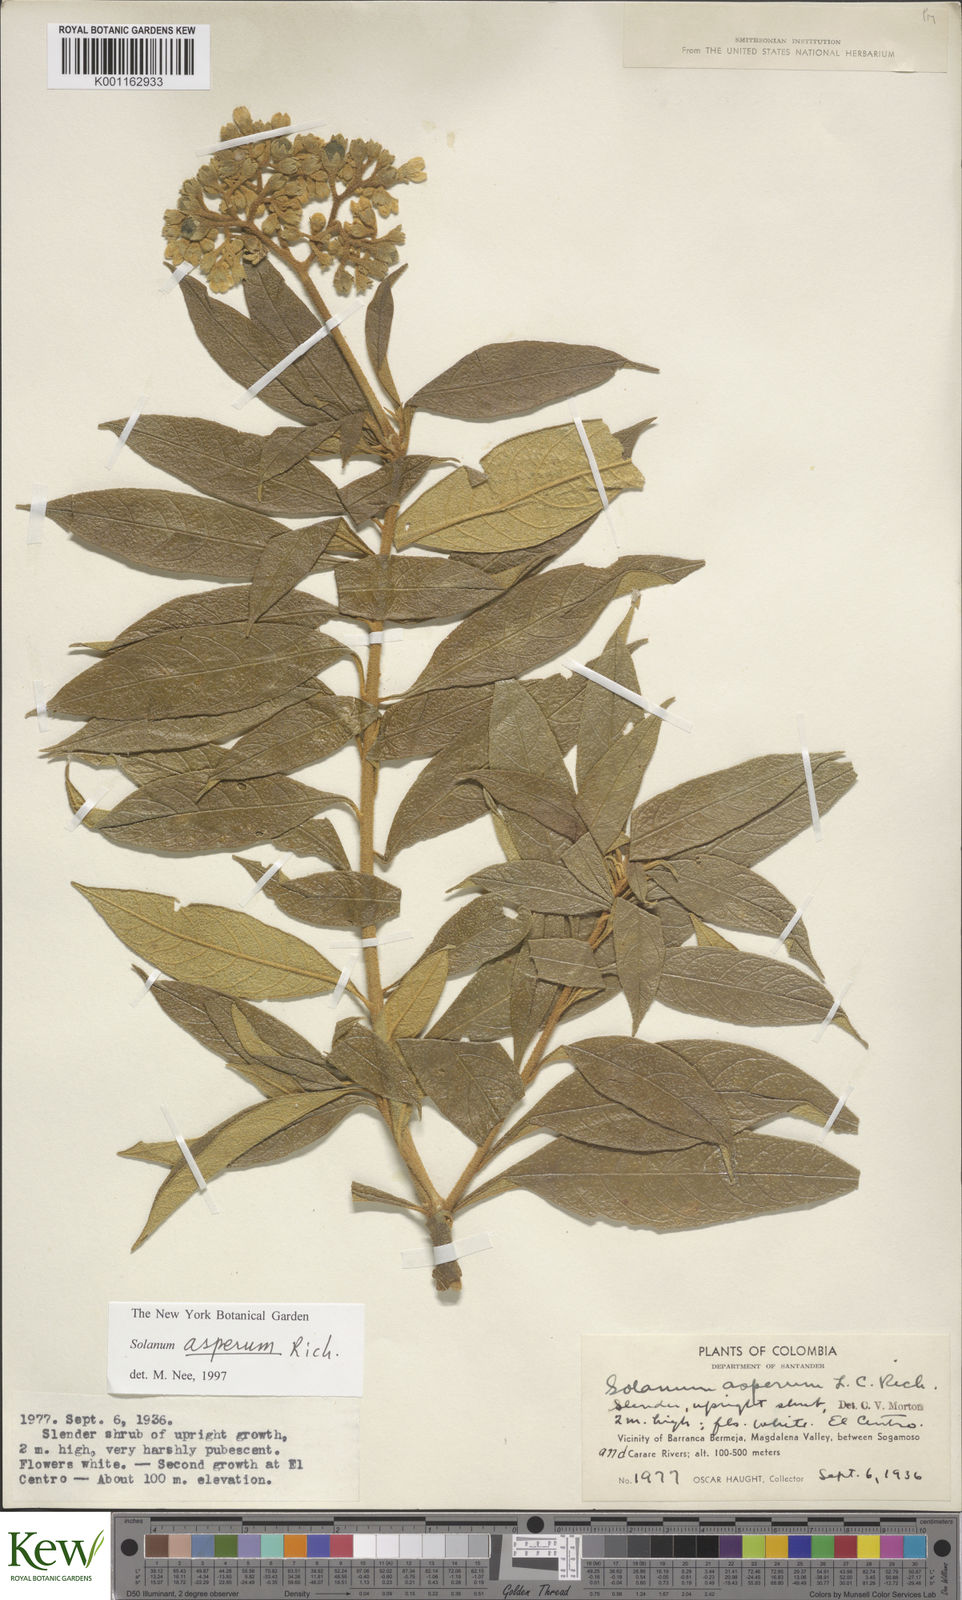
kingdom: Plantae
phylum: Tracheophyta
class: Magnoliopsida
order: Solanales
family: Solanaceae
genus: Solanum
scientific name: Solanum asperum
